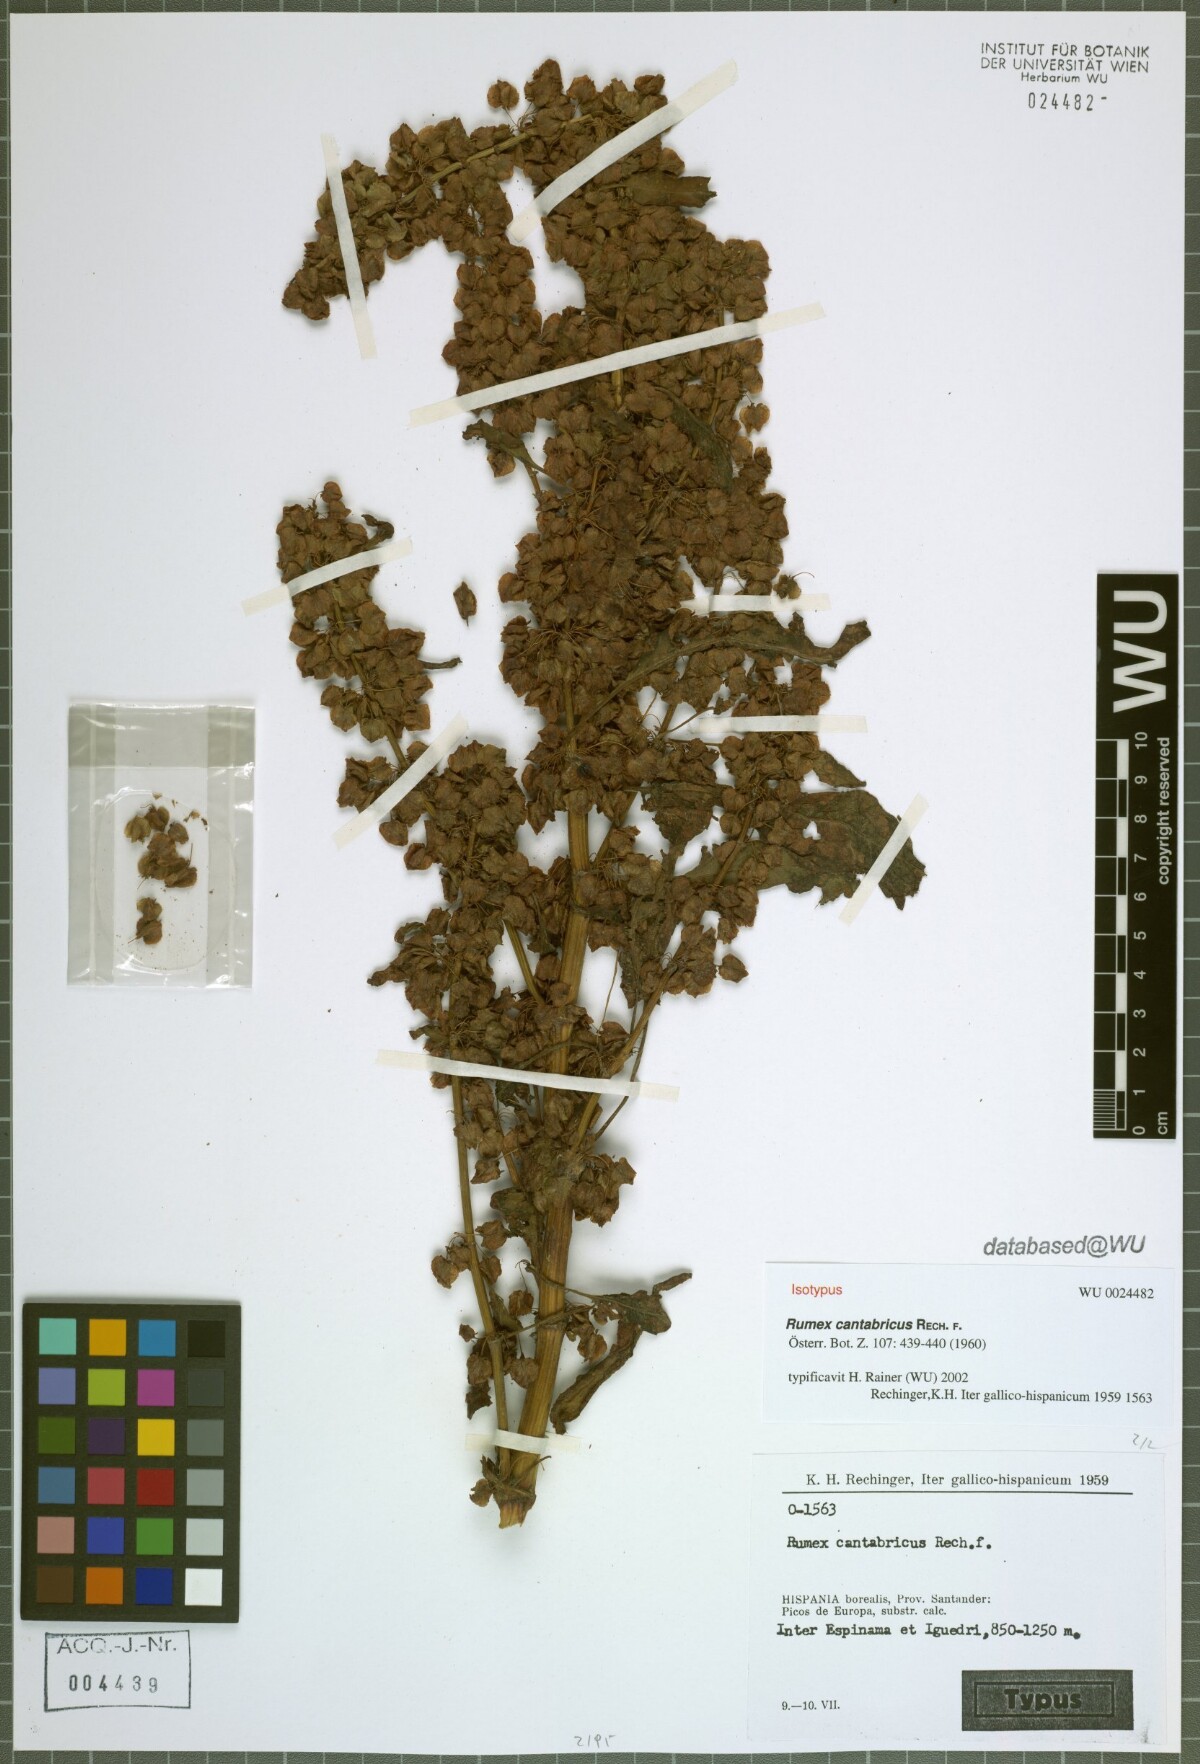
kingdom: Plantae
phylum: Tracheophyta
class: Magnoliopsida
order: Caryophyllales
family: Polygonaceae
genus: Rumex
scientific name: Rumex aquitanicus
